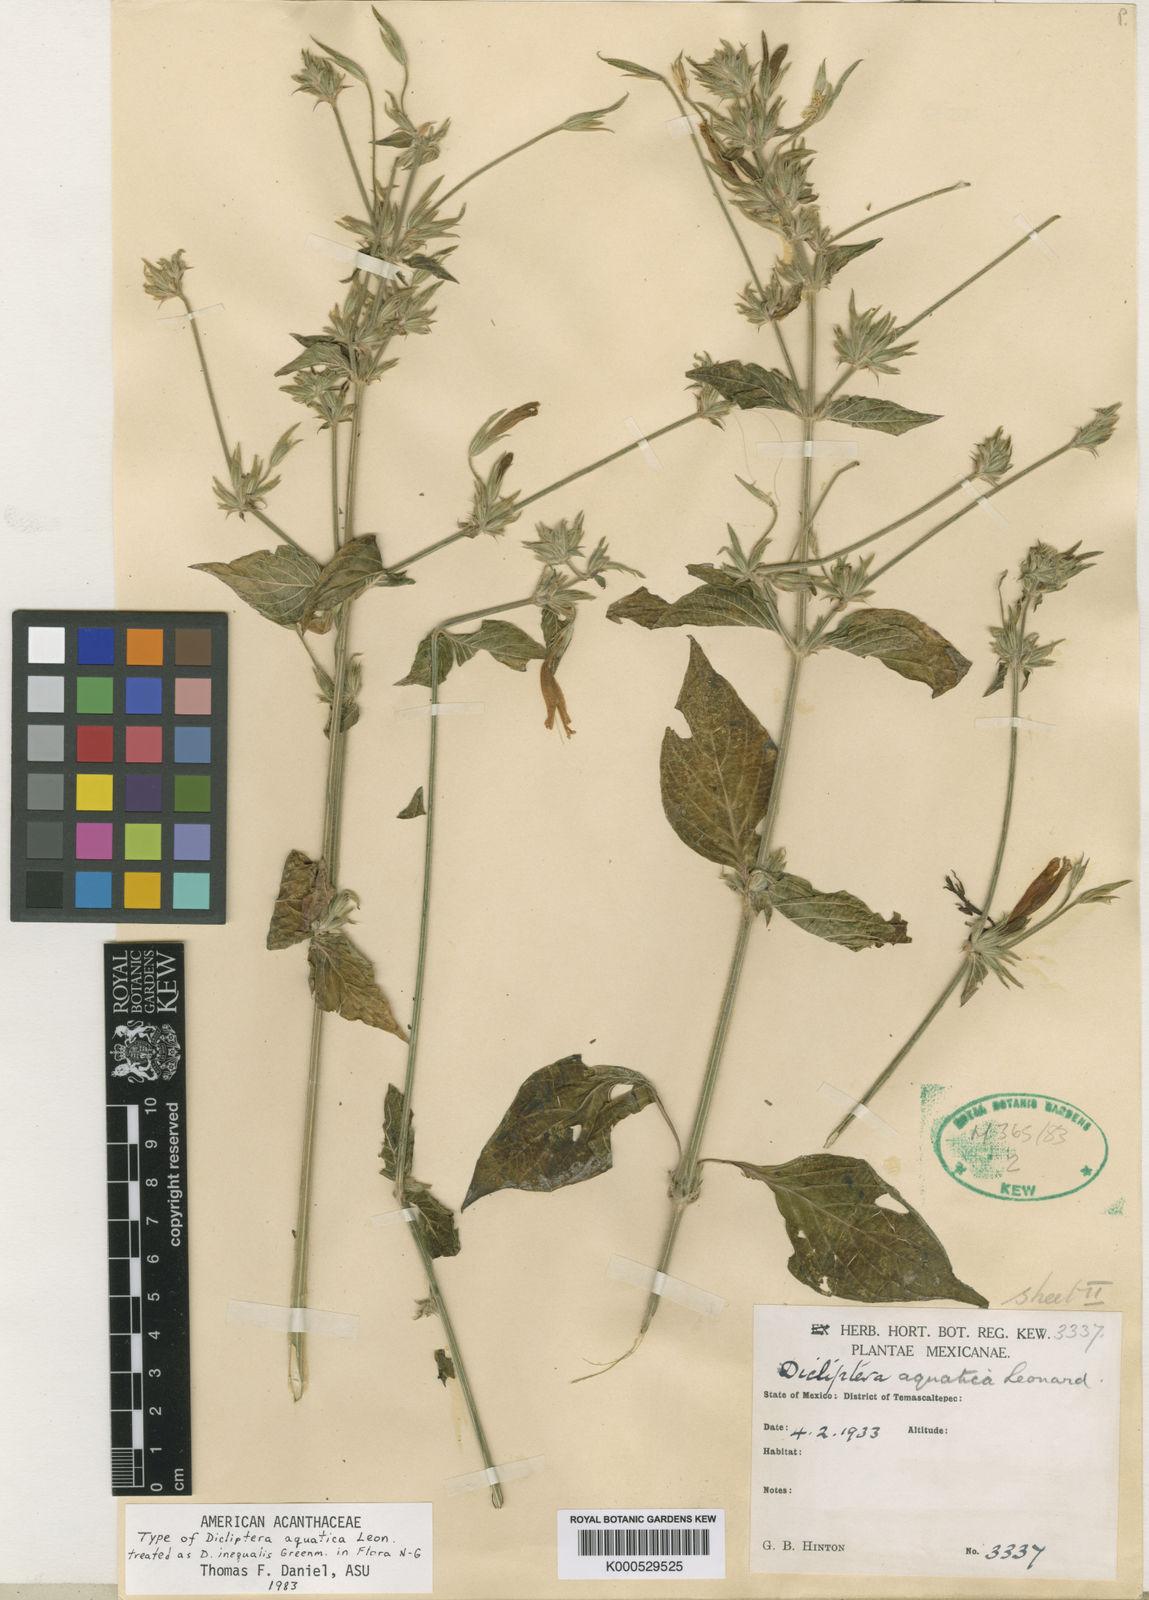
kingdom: Plantae
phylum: Tracheophyta
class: Magnoliopsida
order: Lamiales
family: Acanthaceae
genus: Dicliptera
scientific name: Dicliptera inaequalis
